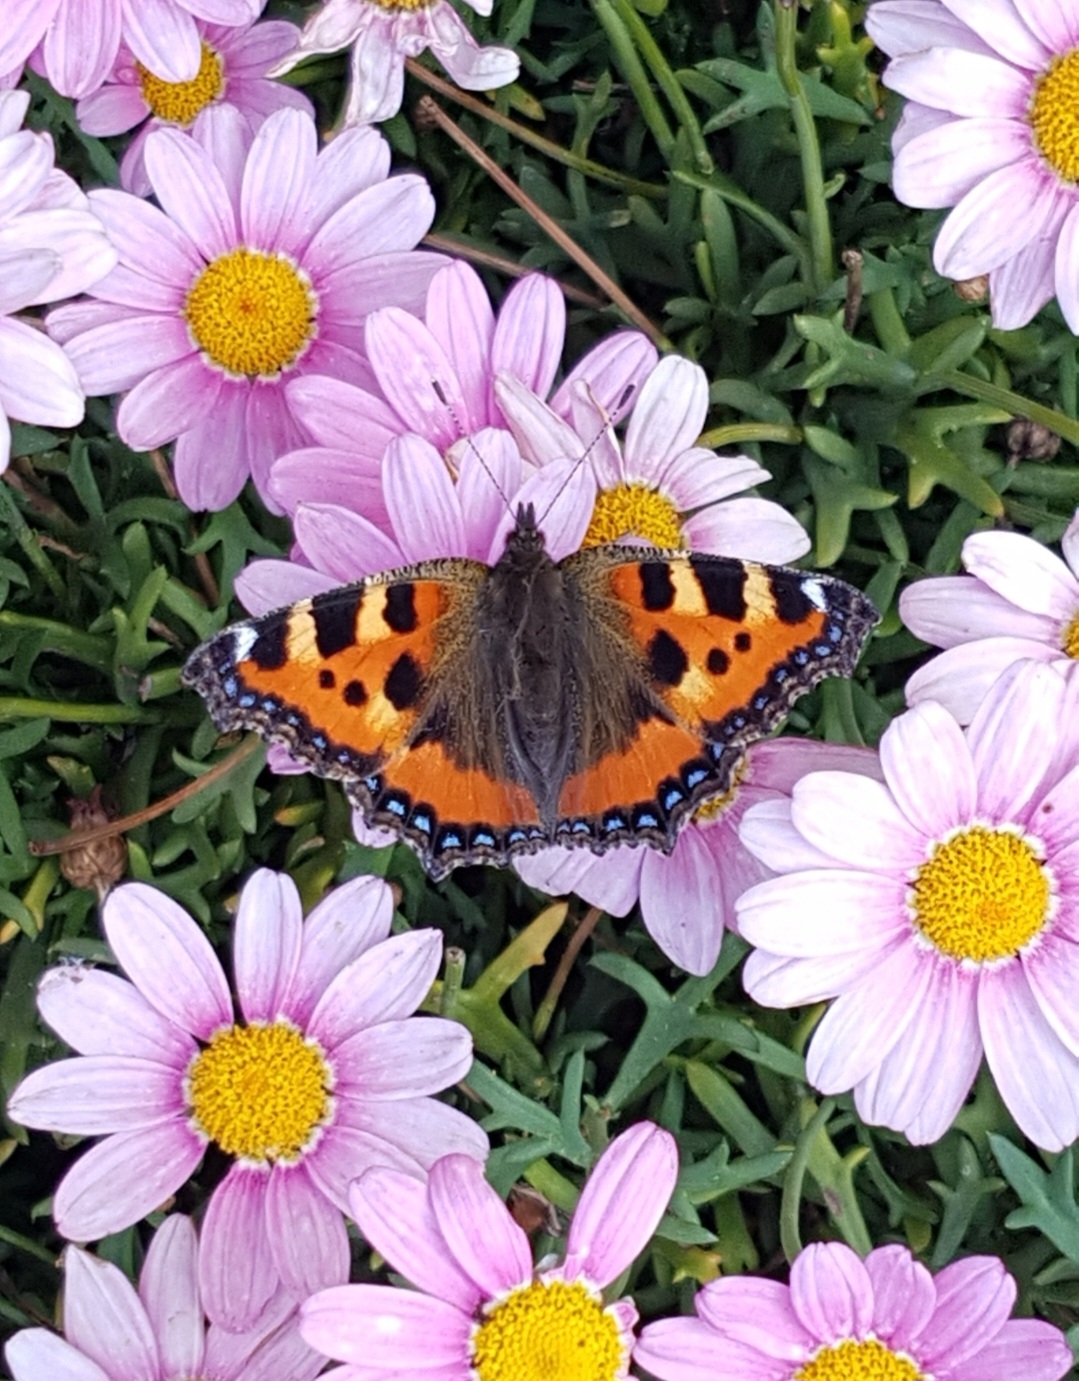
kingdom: Animalia
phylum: Arthropoda
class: Insecta
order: Lepidoptera
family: Nymphalidae
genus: Aglais
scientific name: Aglais urticae
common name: Nældens takvinge
